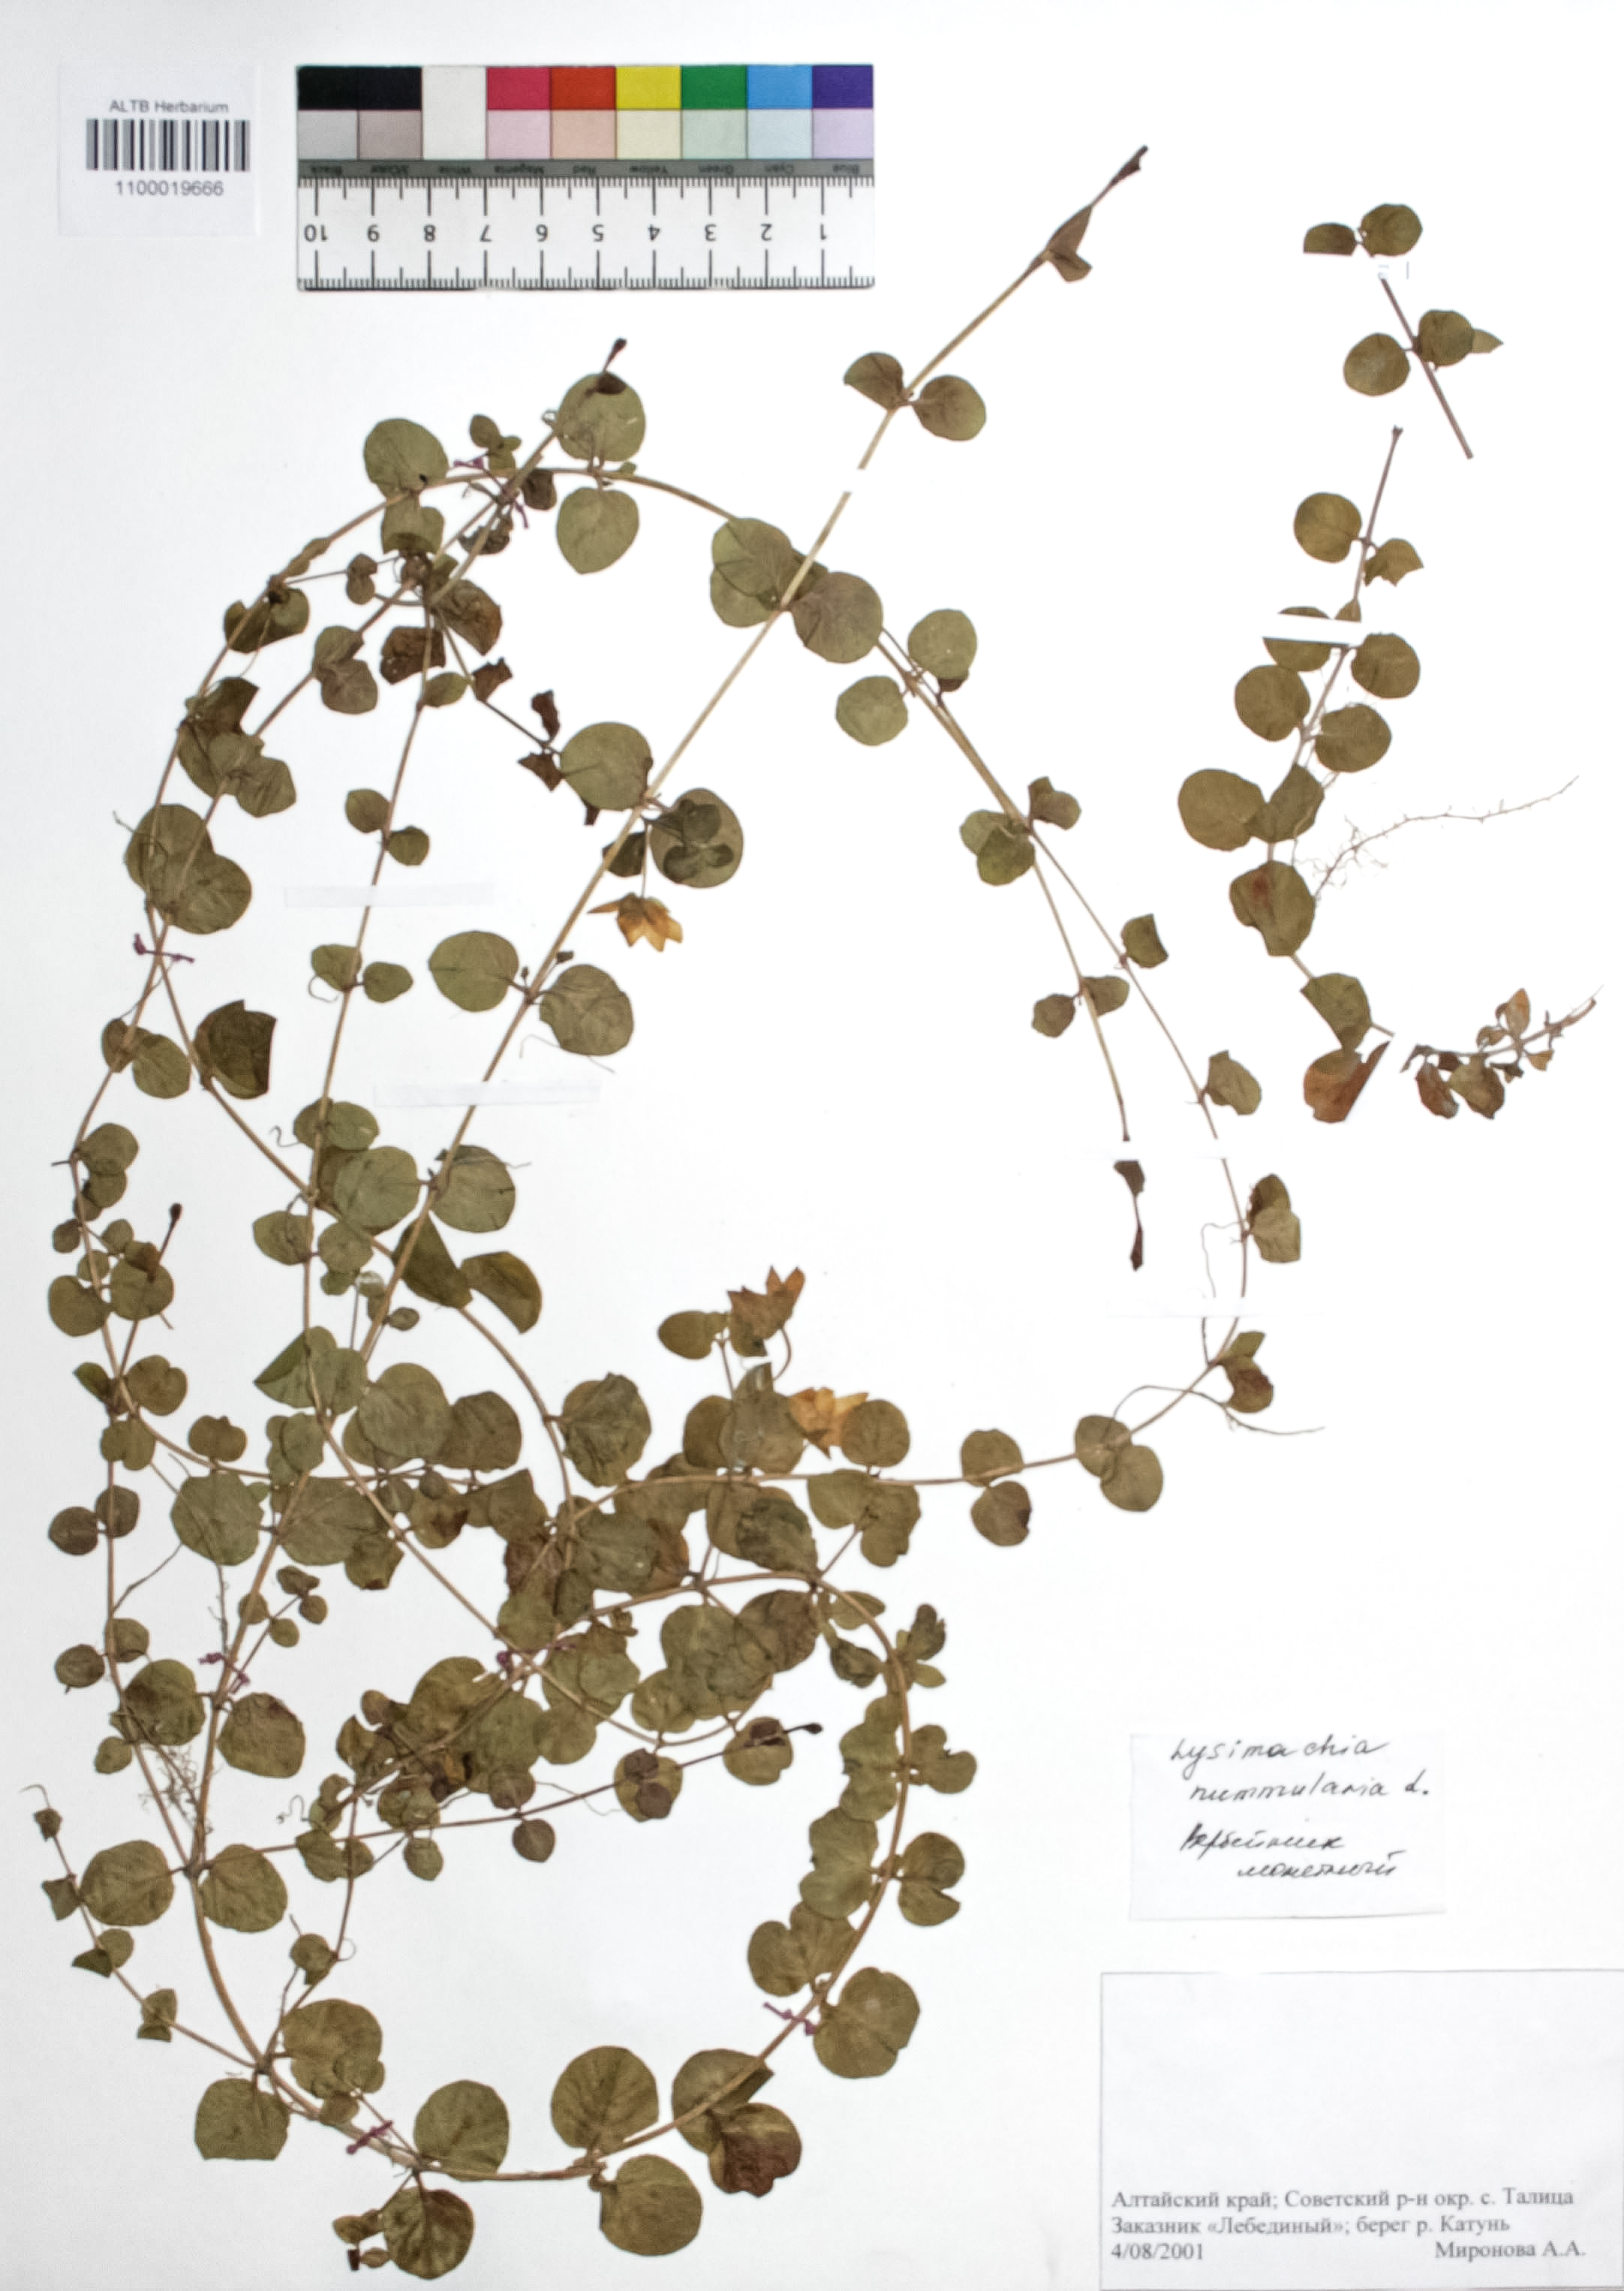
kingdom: Plantae
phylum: Tracheophyta
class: Magnoliopsida
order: Ericales
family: Primulaceae
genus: Lysimachia
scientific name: Lysimachia nummularia
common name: Moneywort
